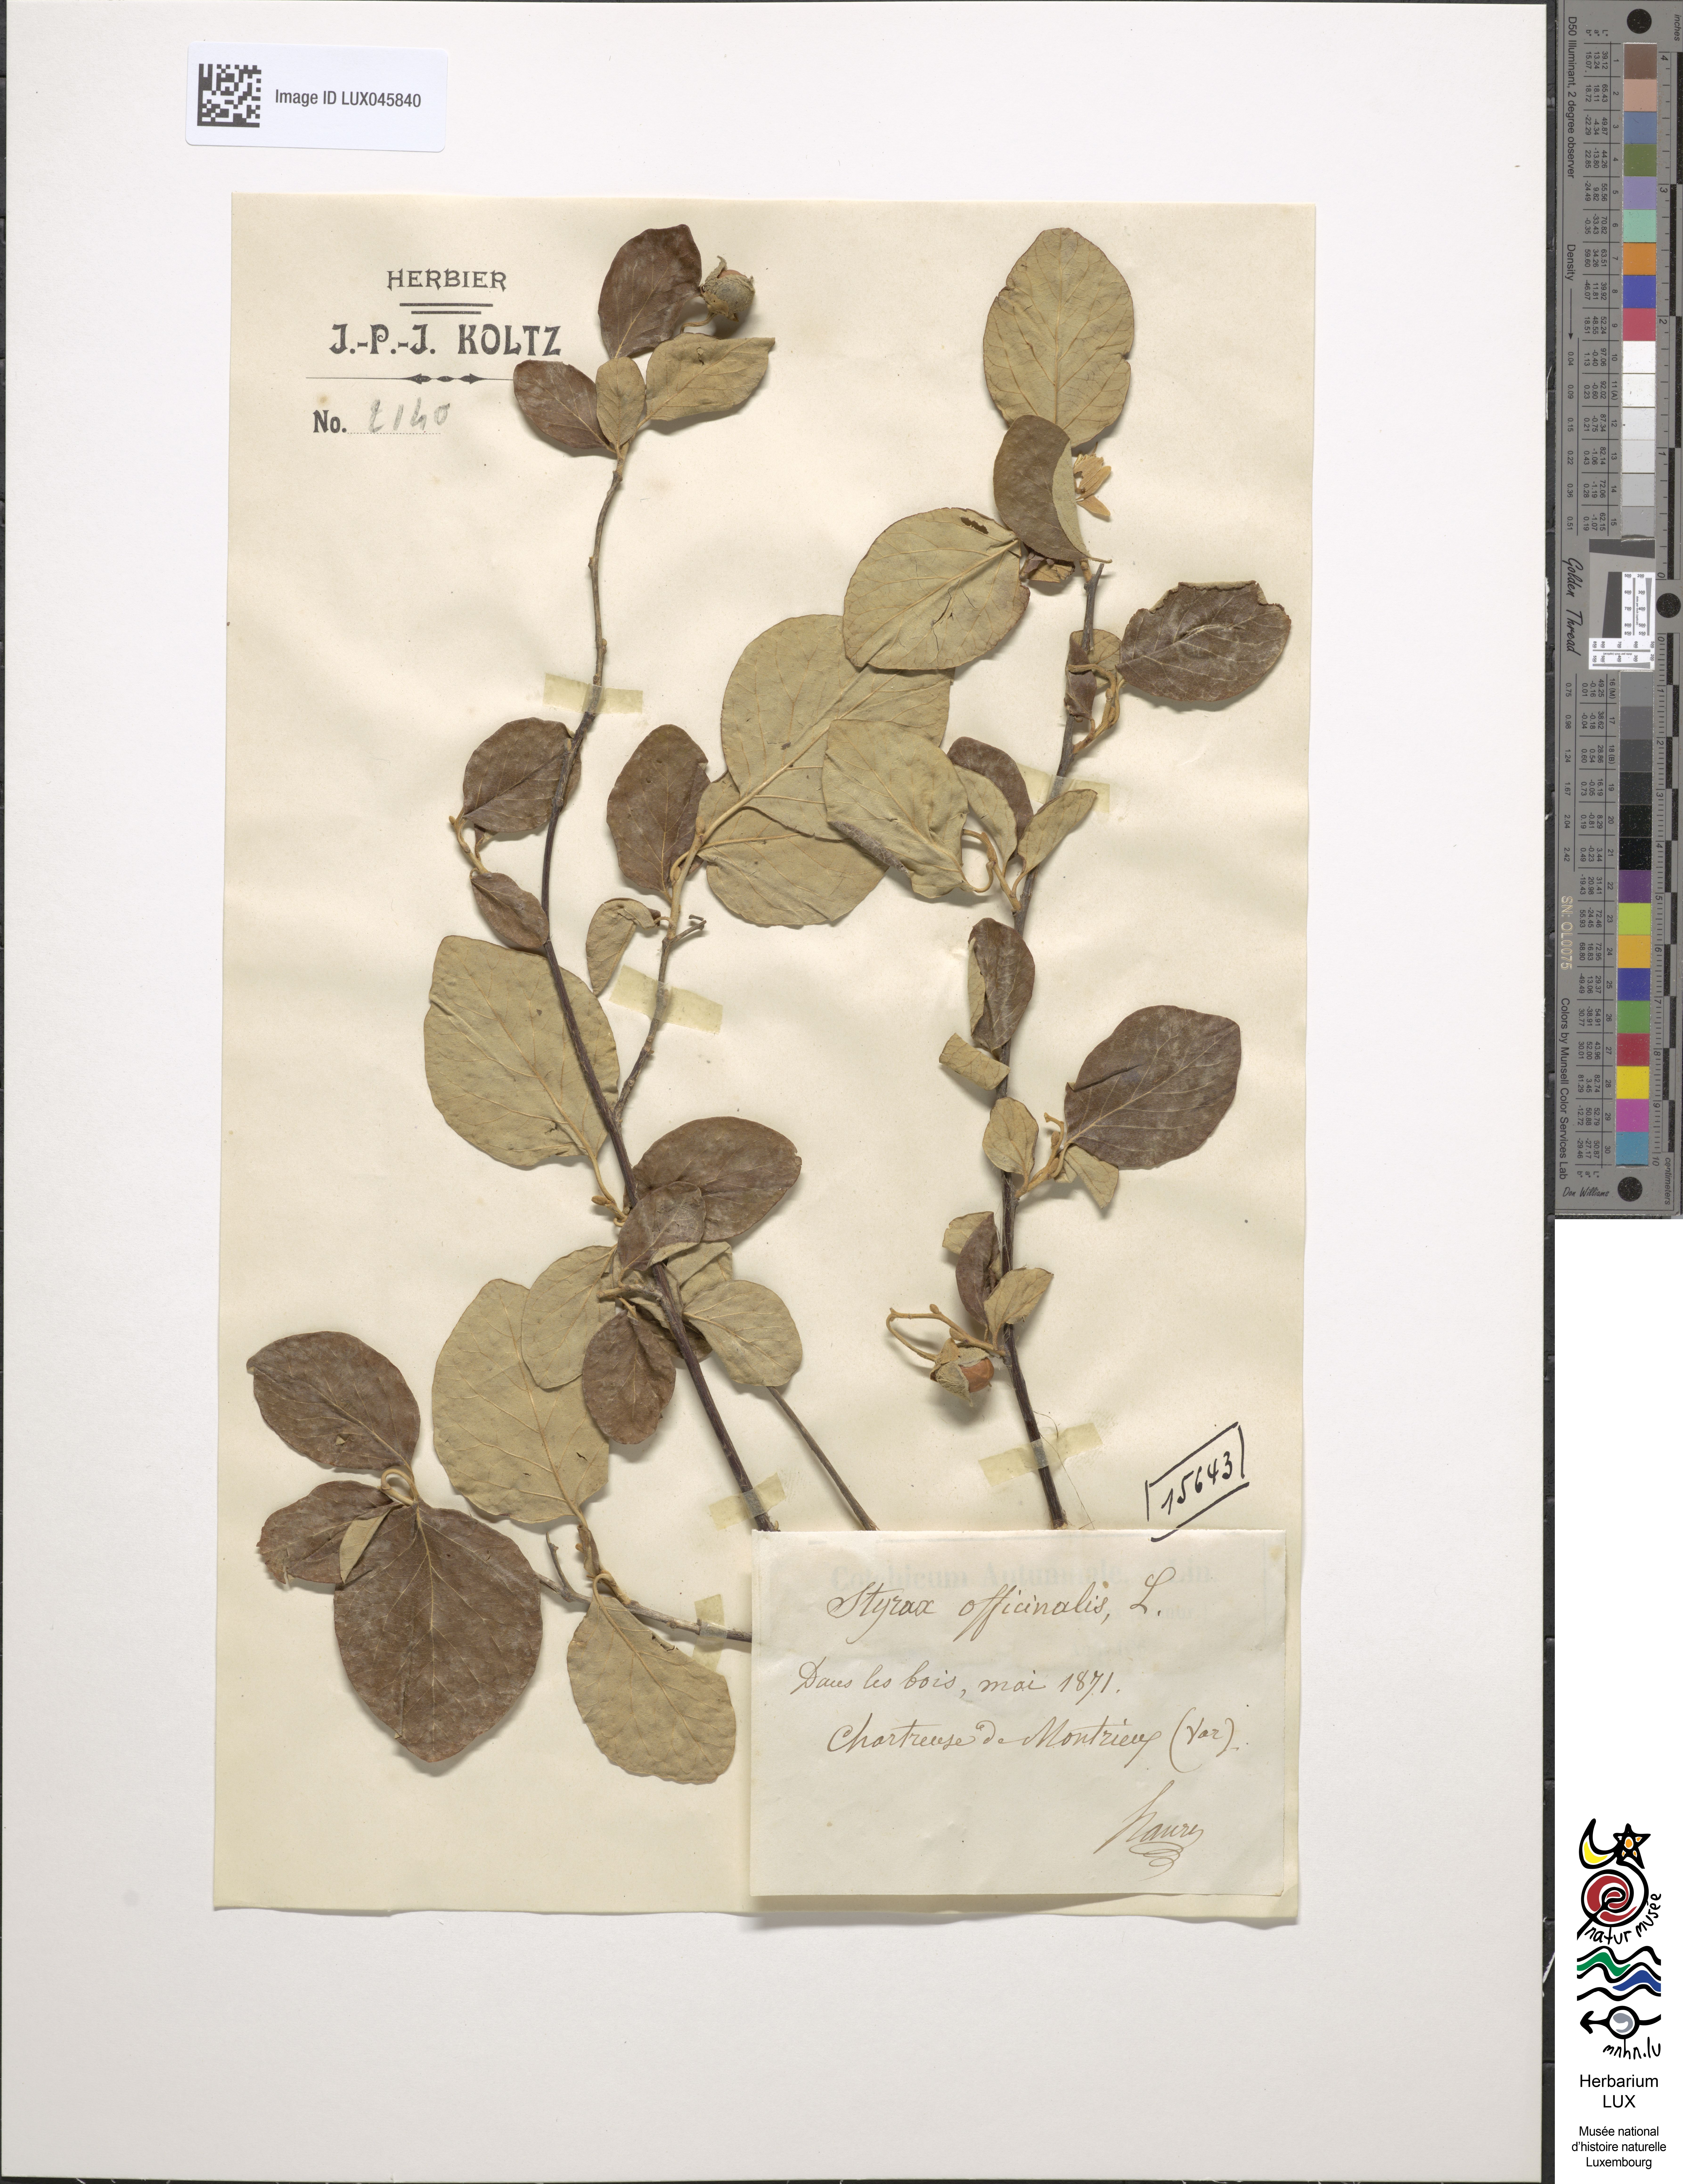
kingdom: Plantae
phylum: Tracheophyta
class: Magnoliopsida
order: Ericales
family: Styracaceae
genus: Styrax
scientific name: Styrax officinalis
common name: Storax
